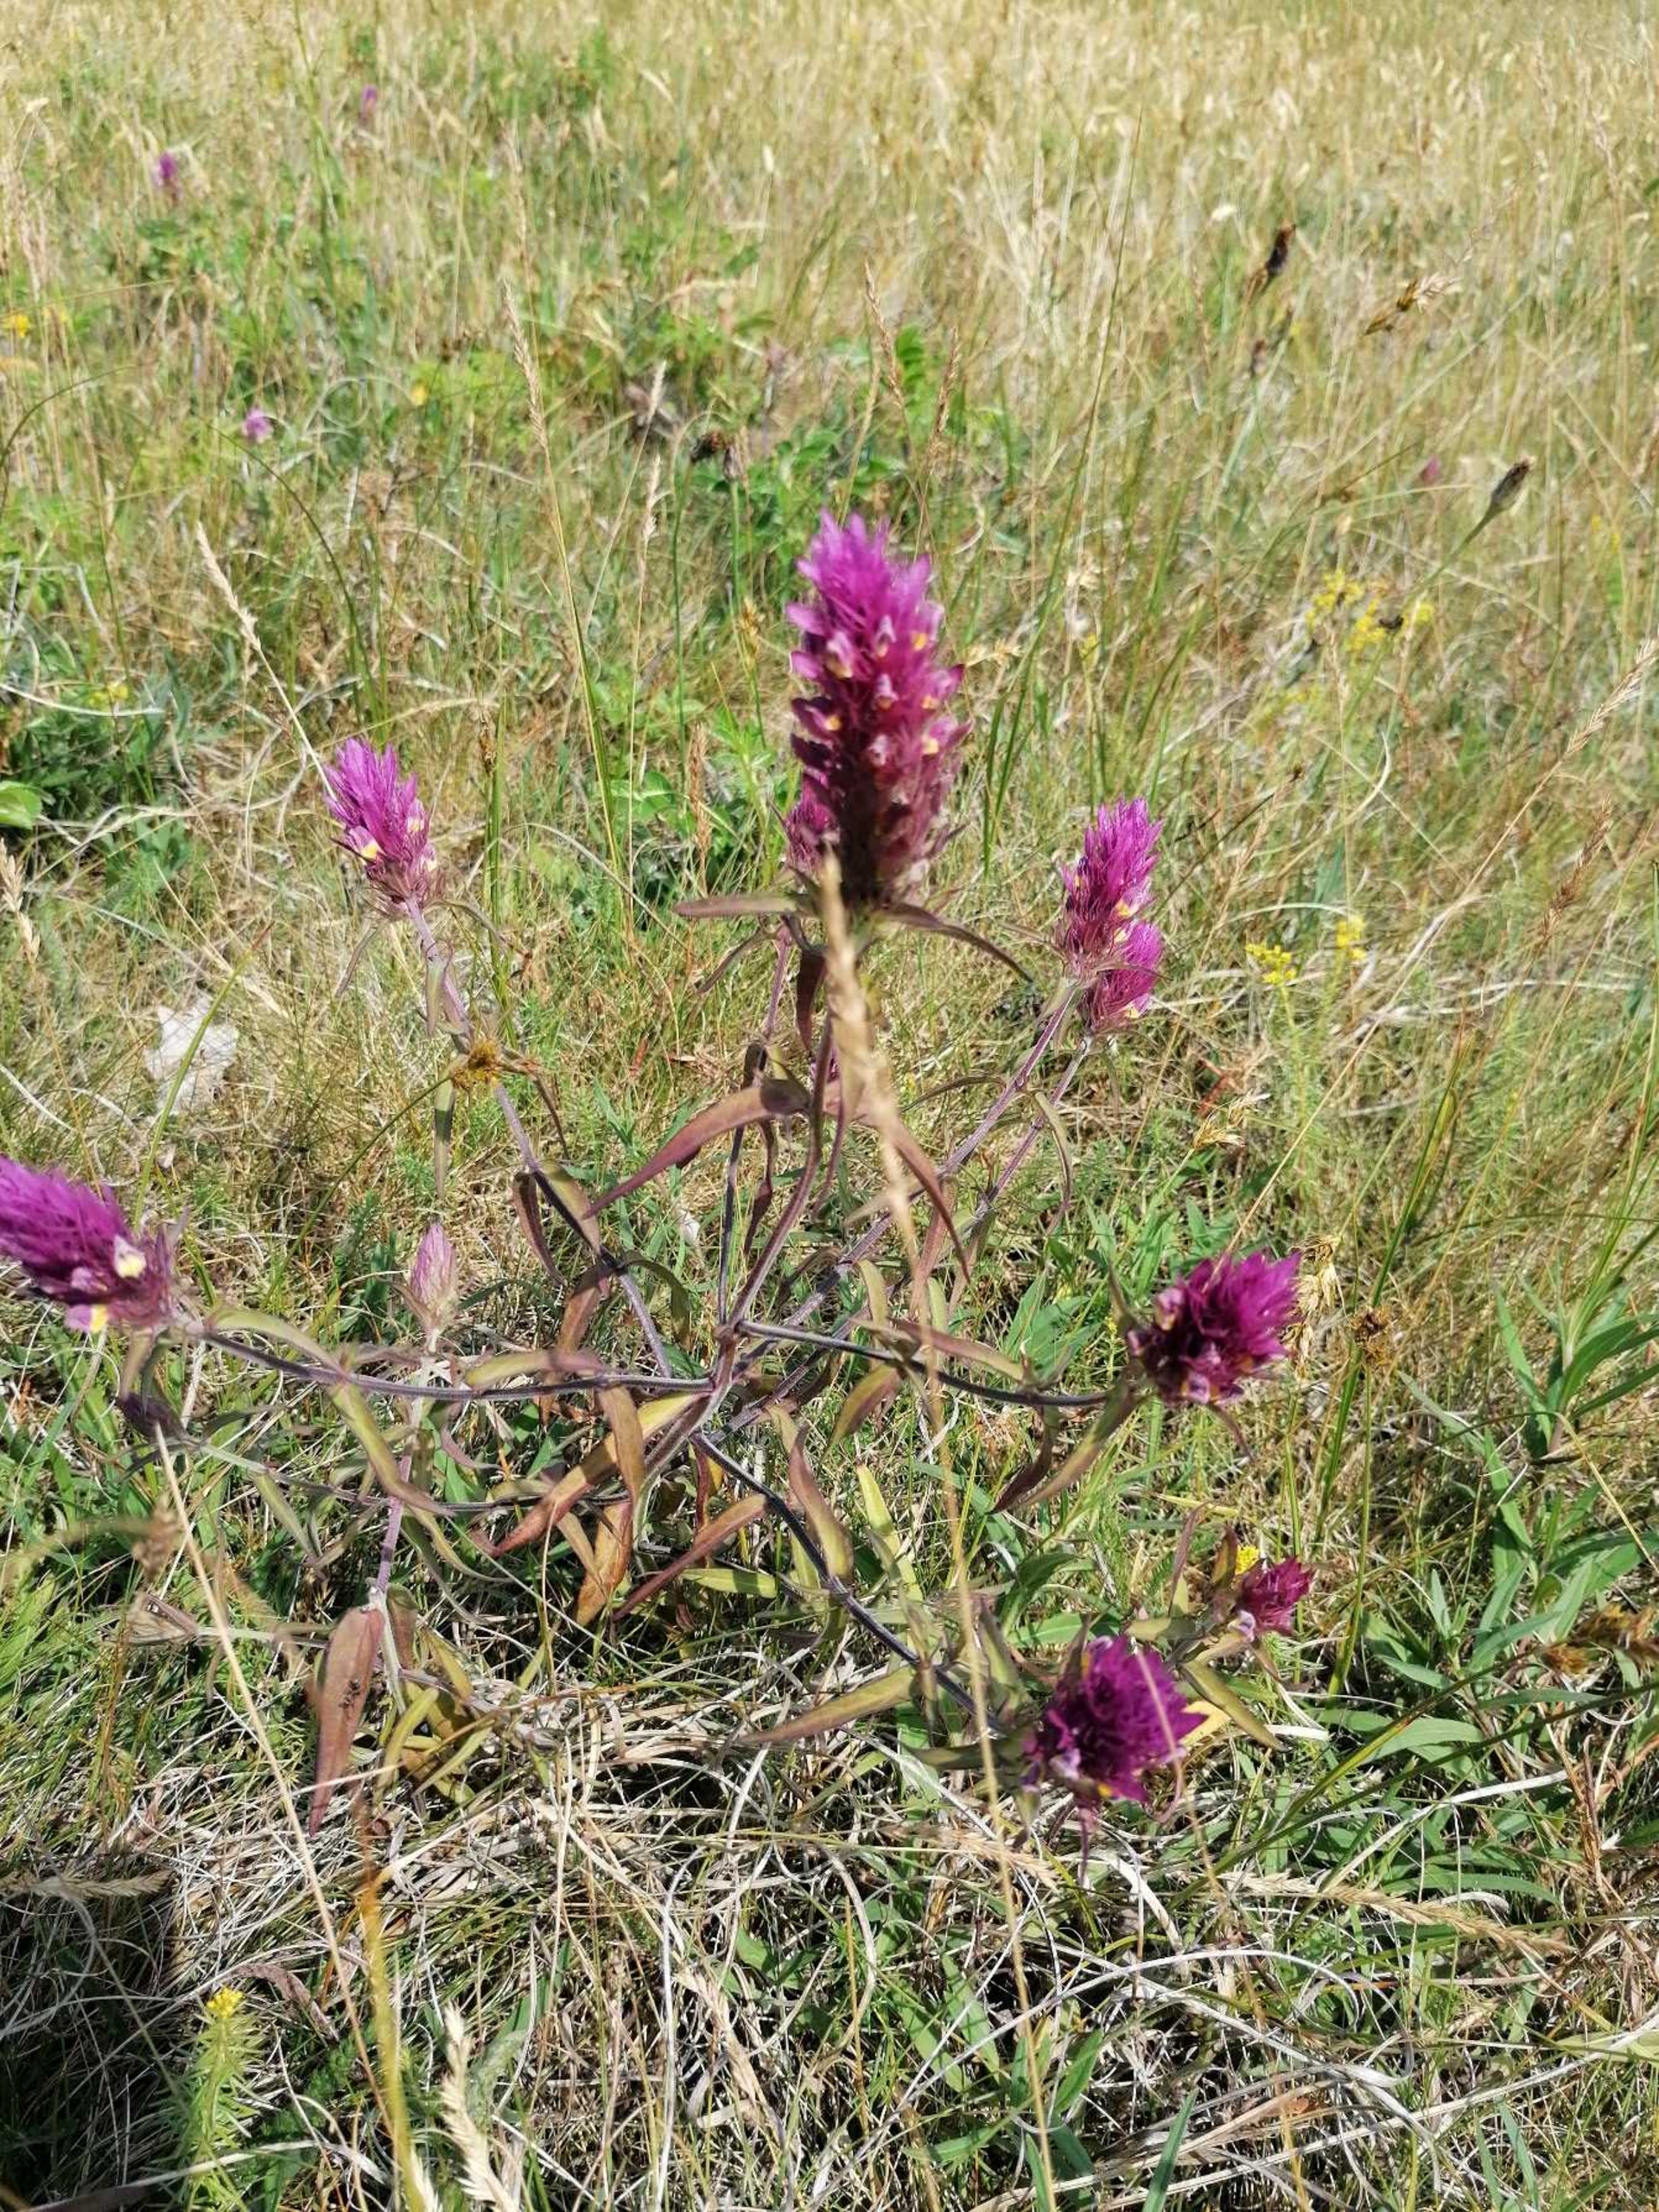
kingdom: Plantae
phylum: Tracheophyta
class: Magnoliopsida
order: Lamiales
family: Orobanchaceae
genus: Melampyrum
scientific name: Melampyrum arvense
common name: Ager-kohvede
